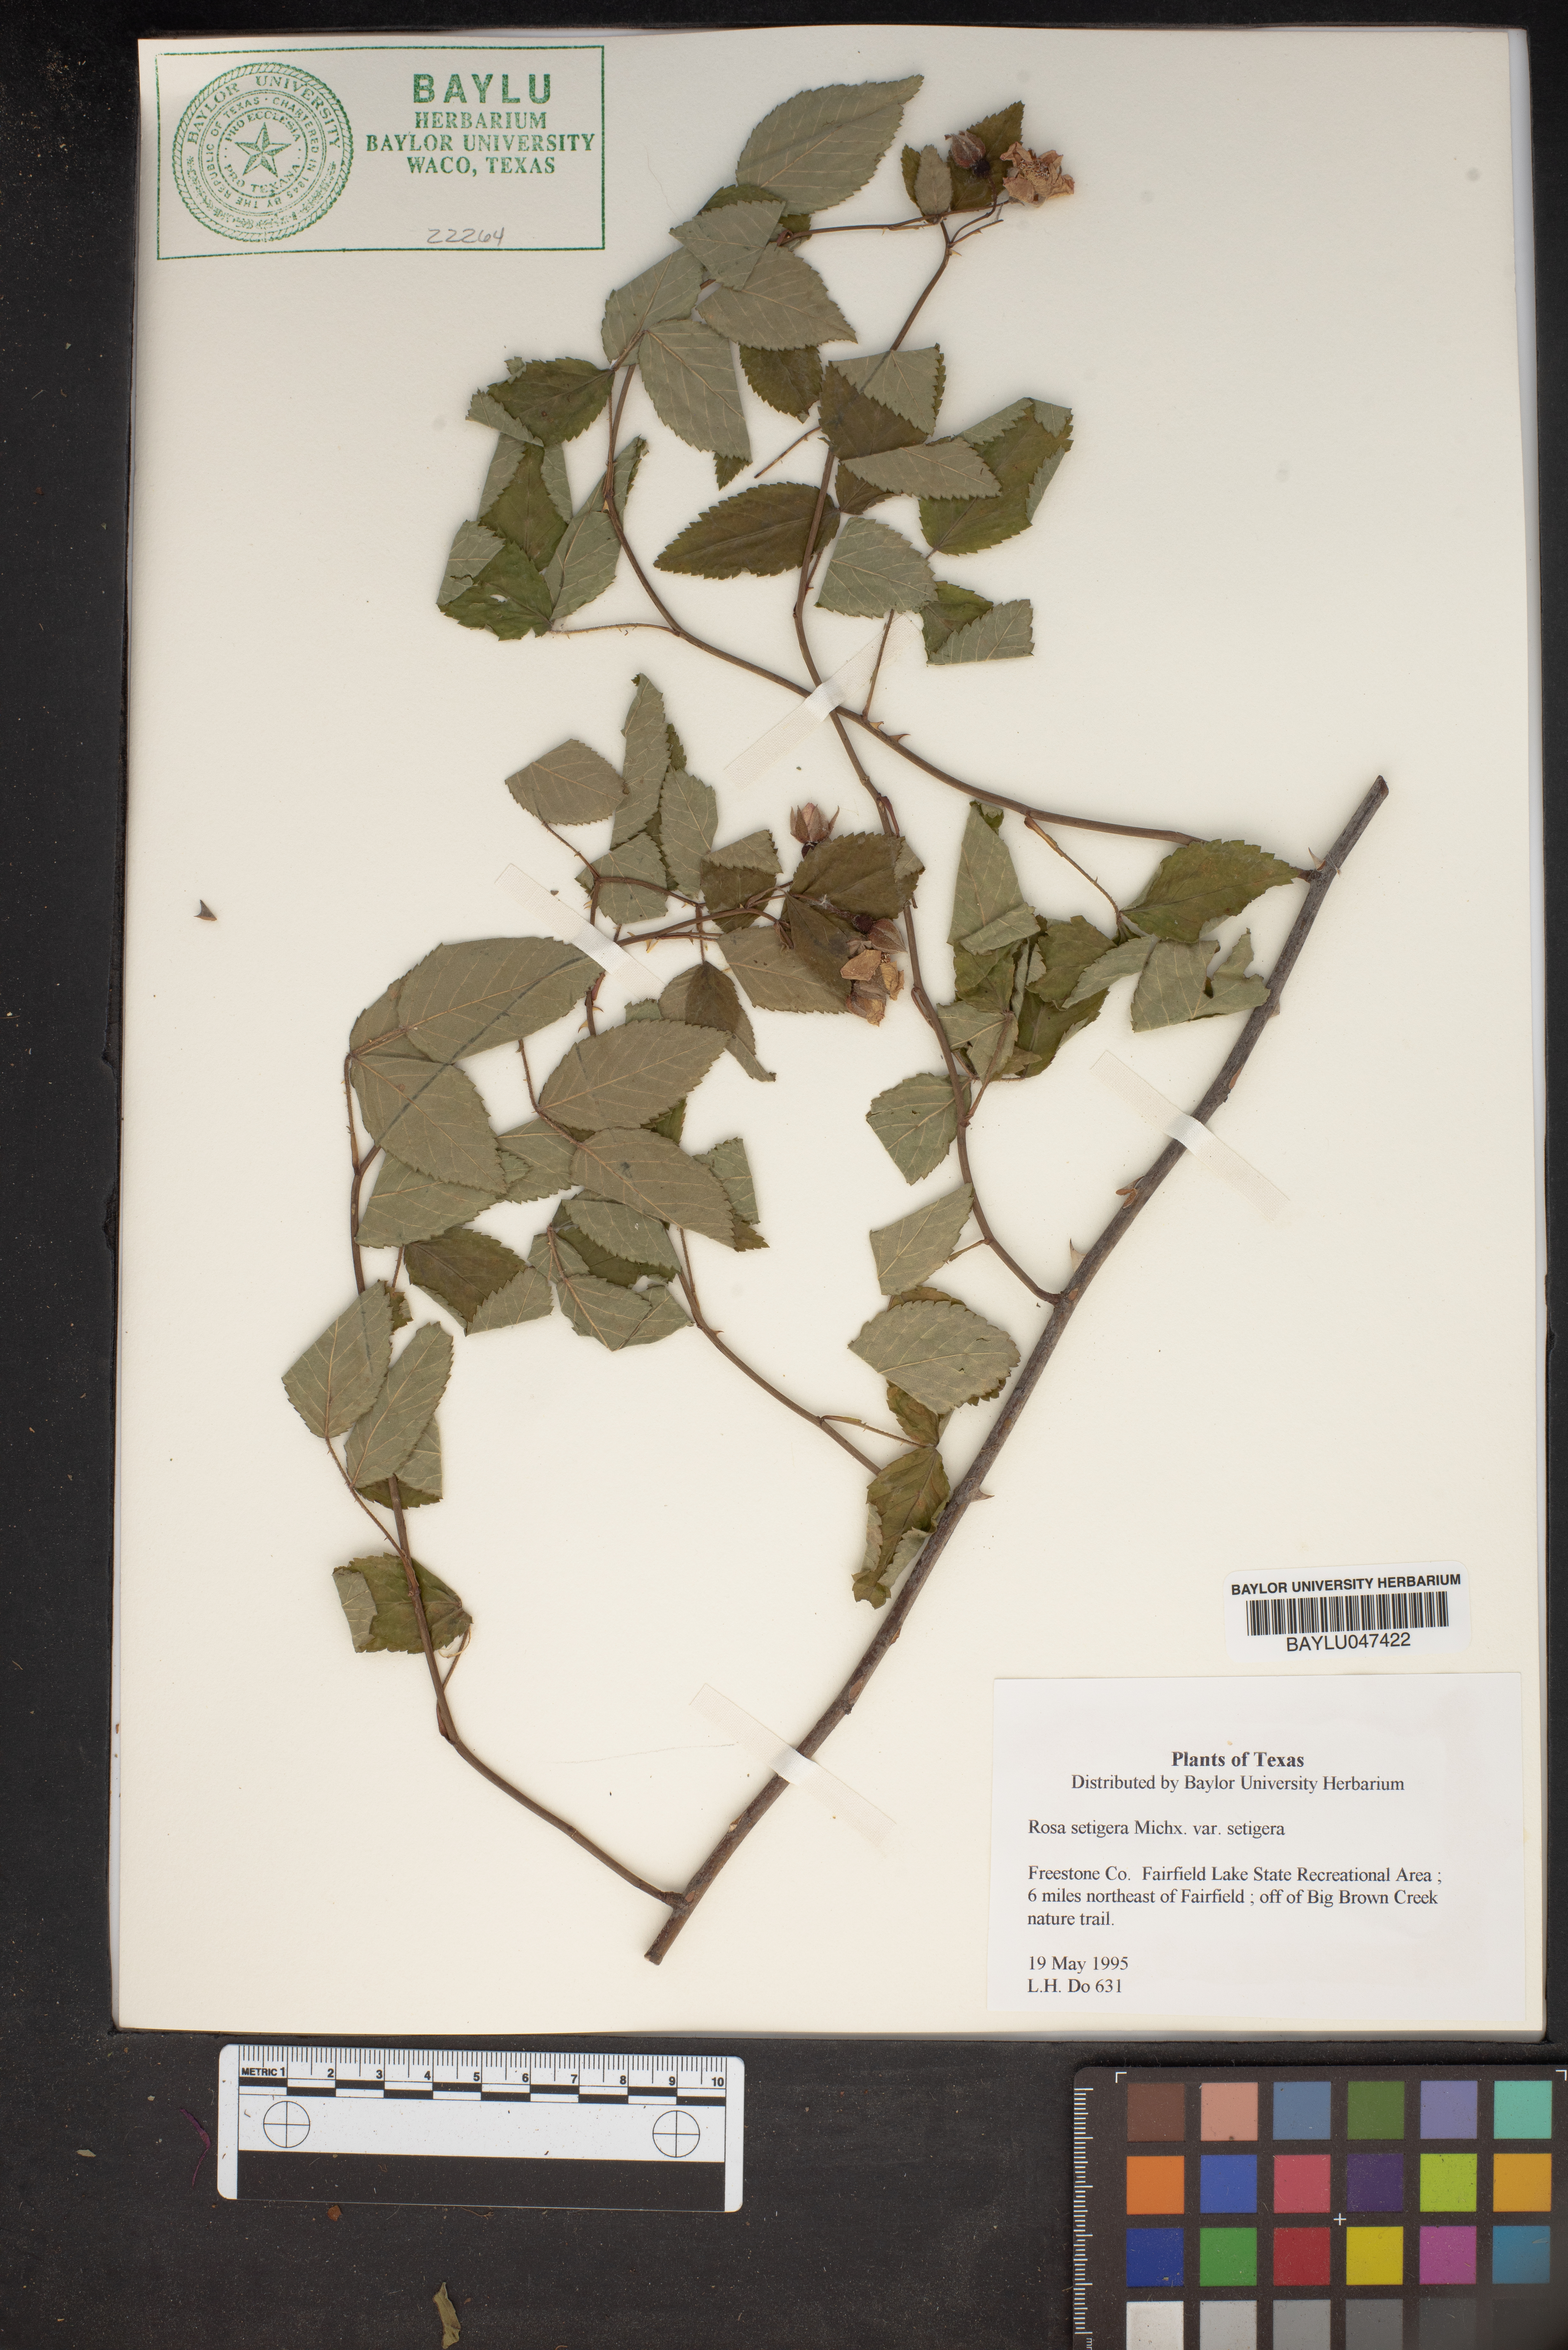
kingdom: Plantae
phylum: Tracheophyta
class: Magnoliopsida
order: Rosales
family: Rosaceae
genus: Rosa
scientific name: Rosa setigera
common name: Prairie rose
